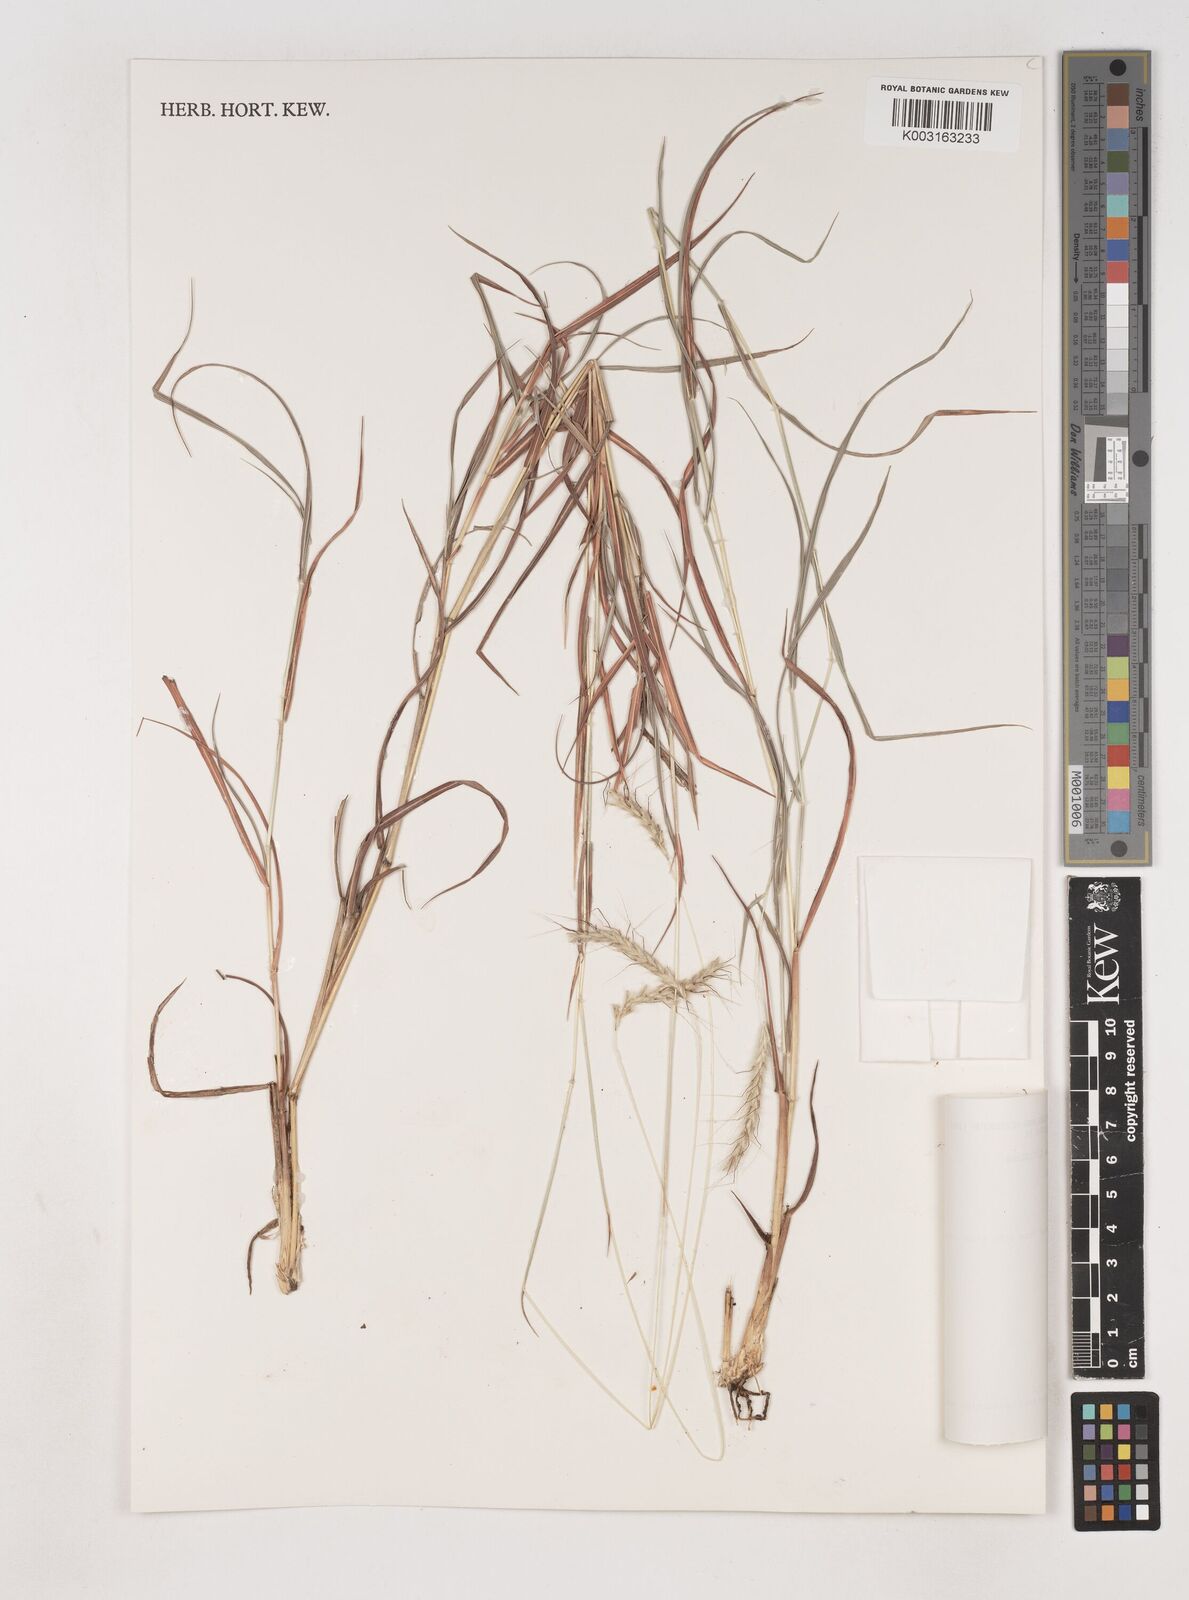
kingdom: Plantae
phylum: Tracheophyta
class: Liliopsida
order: Poales
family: Poaceae
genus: Dichanthium
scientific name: Dichanthium fecundum
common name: Bundle-bundle
